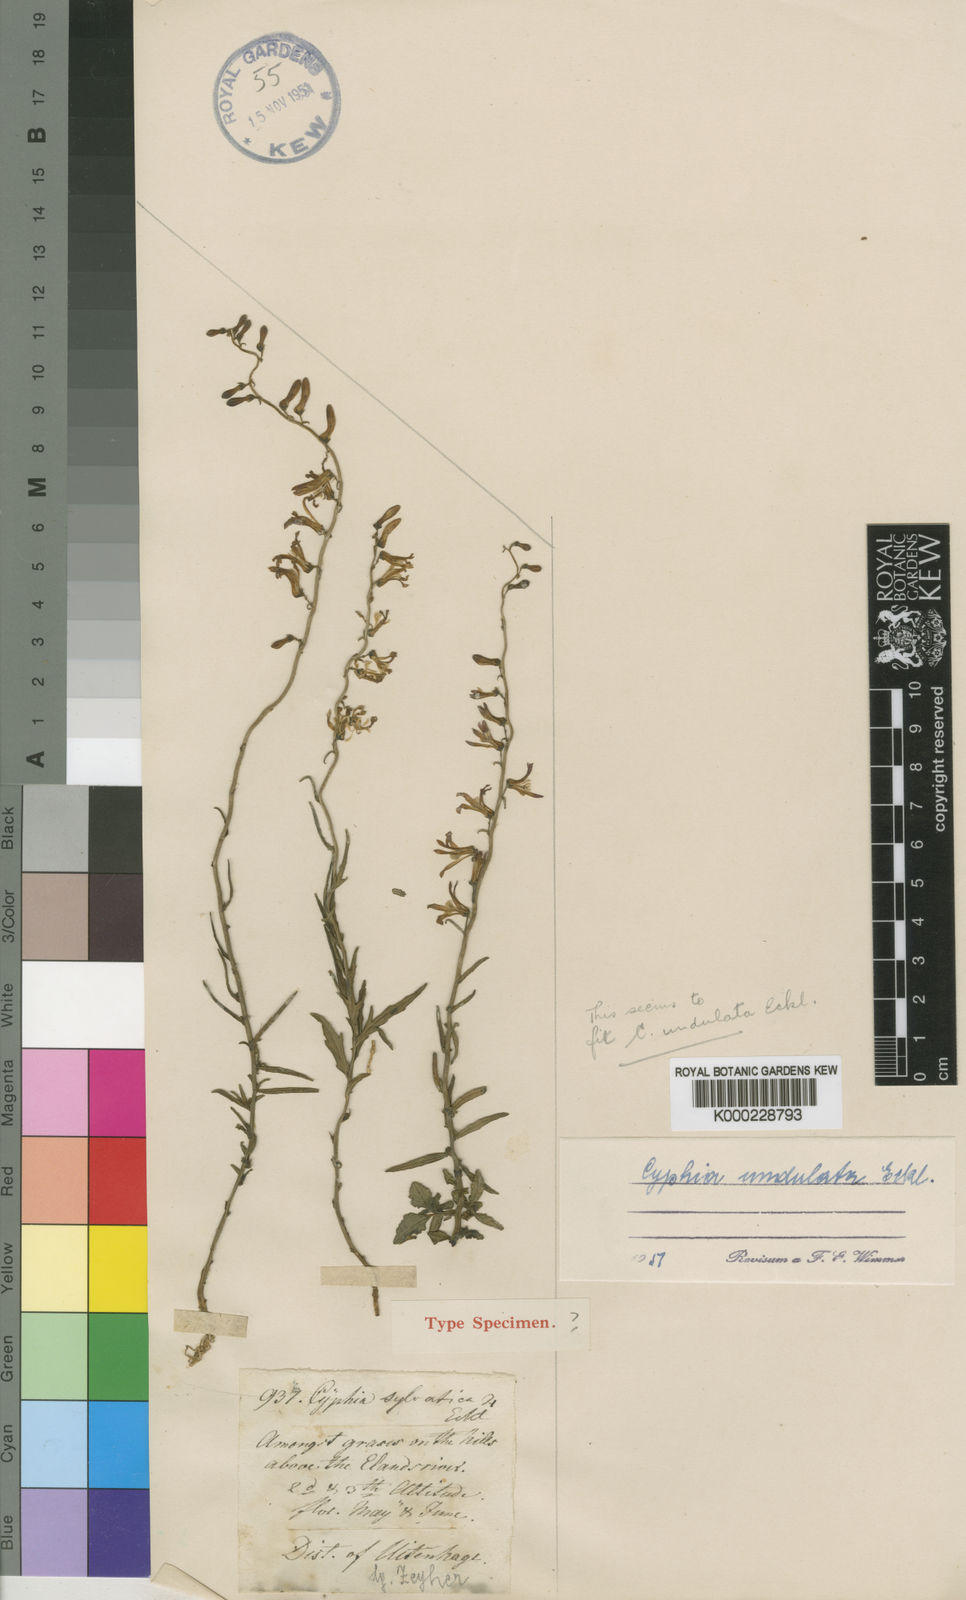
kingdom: Plantae
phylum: Tracheophyta
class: Magnoliopsida
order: Asterales
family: Campanulaceae
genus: Cyphia
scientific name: Cyphia
